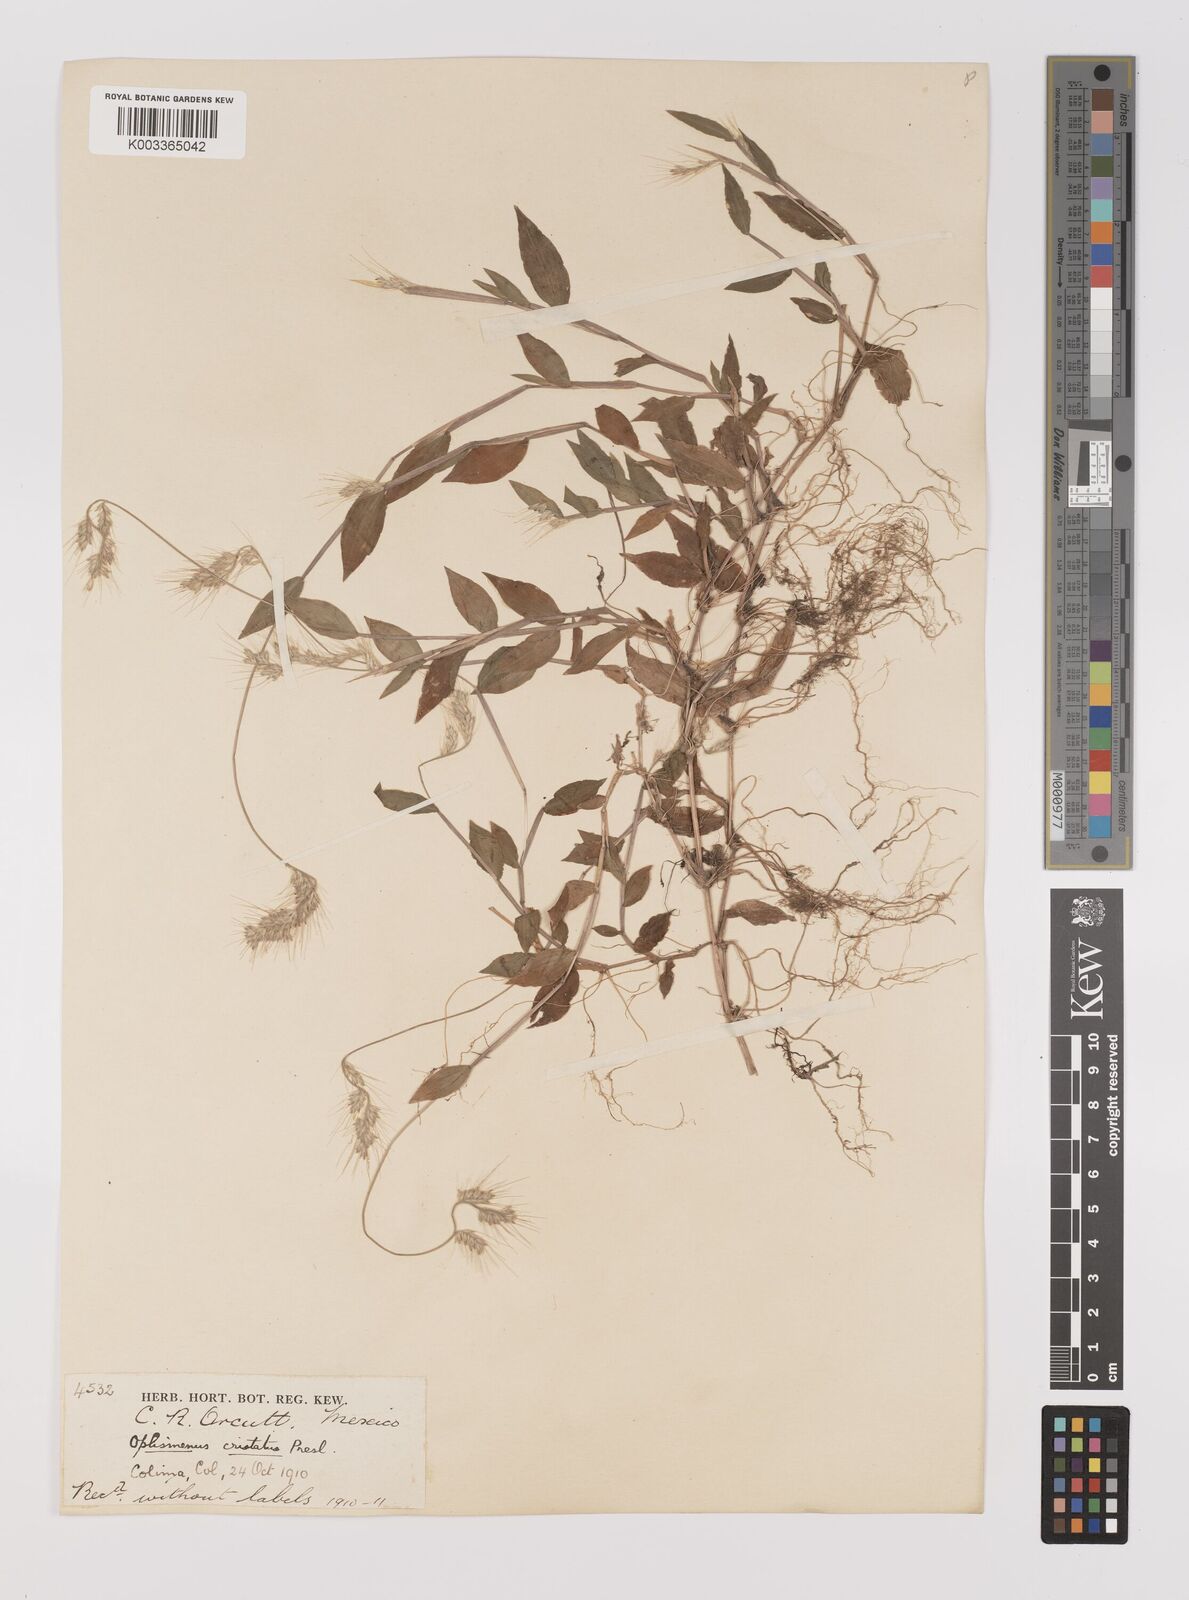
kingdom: Plantae
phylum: Tracheophyta
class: Liliopsida
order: Poales
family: Poaceae
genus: Oplismenus
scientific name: Oplismenus burmanni
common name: Burmann's basketgrass
